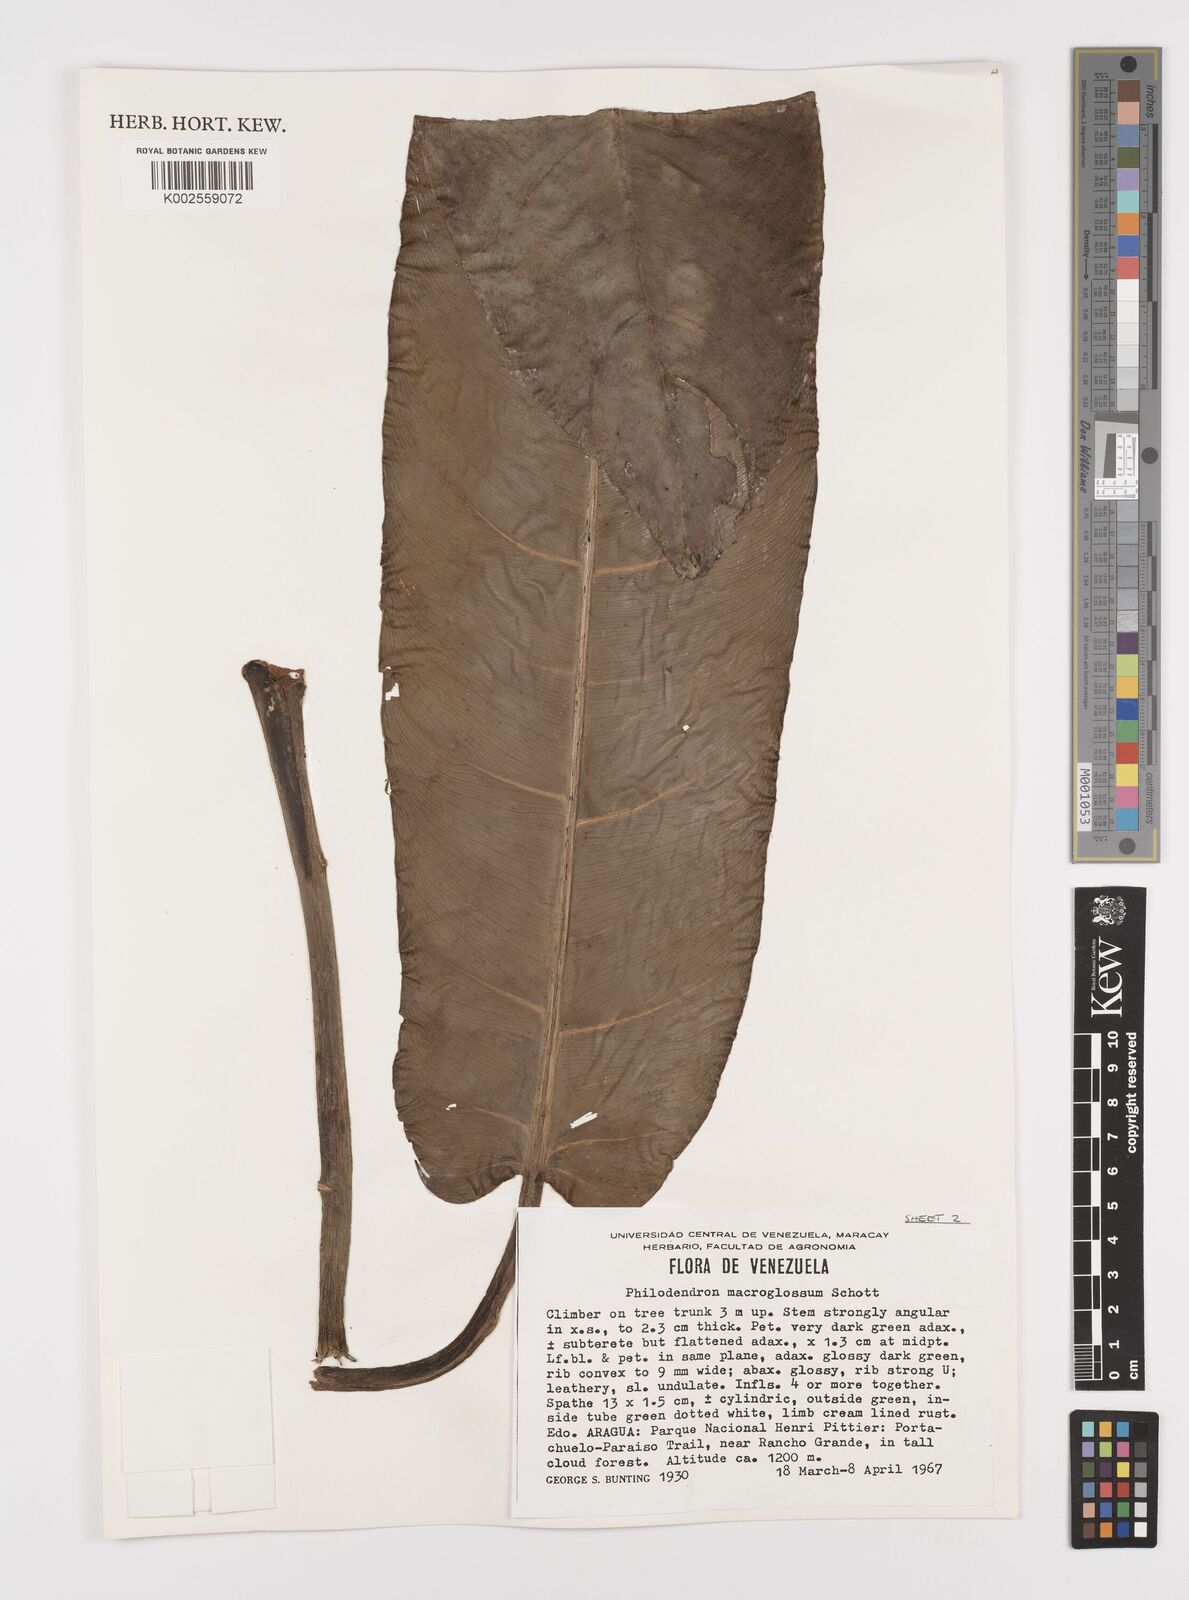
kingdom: Plantae
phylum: Tracheophyta
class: Liliopsida
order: Alismatales
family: Araceae
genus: Philodendron
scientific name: Philodendron macroglossum
